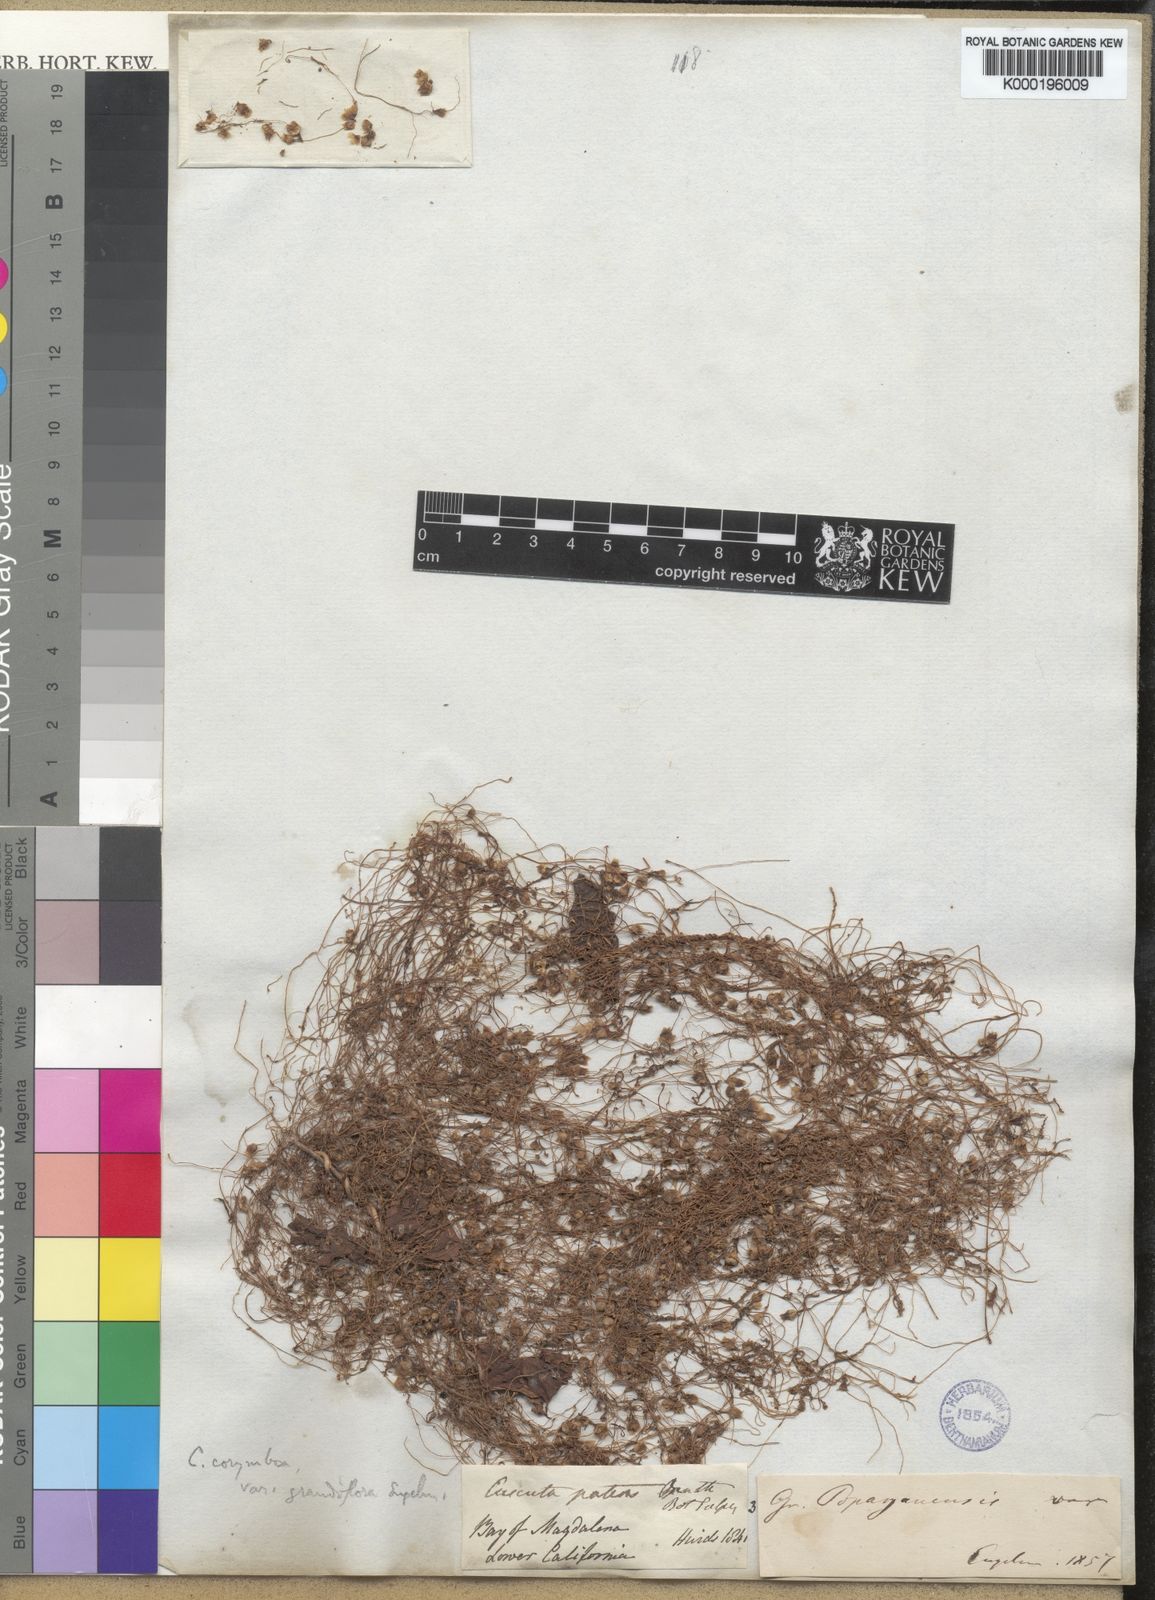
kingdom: Plantae
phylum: Tracheophyta
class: Magnoliopsida
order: Solanales
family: Convolvulaceae
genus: Cuscuta
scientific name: Cuscuta corymbosa
